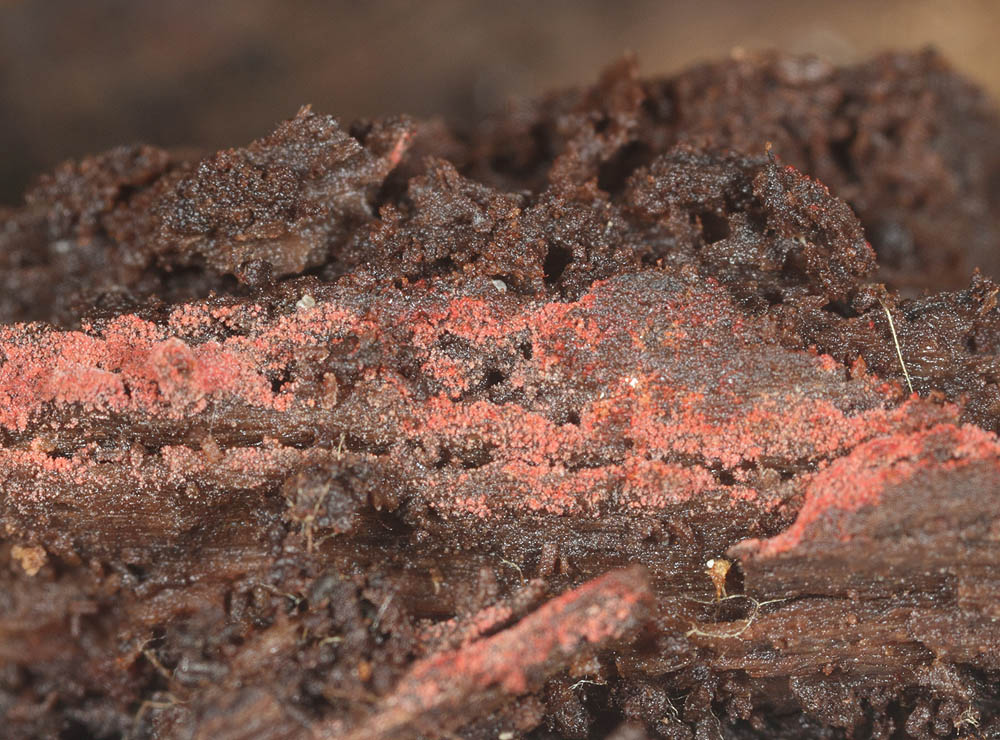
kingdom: Fungi
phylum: Basidiomycota
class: Agaricomycetes
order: Thelephorales
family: Thelephoraceae
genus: Tomentella
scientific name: Tomentella lateritia
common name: teglrød frynsehinde
